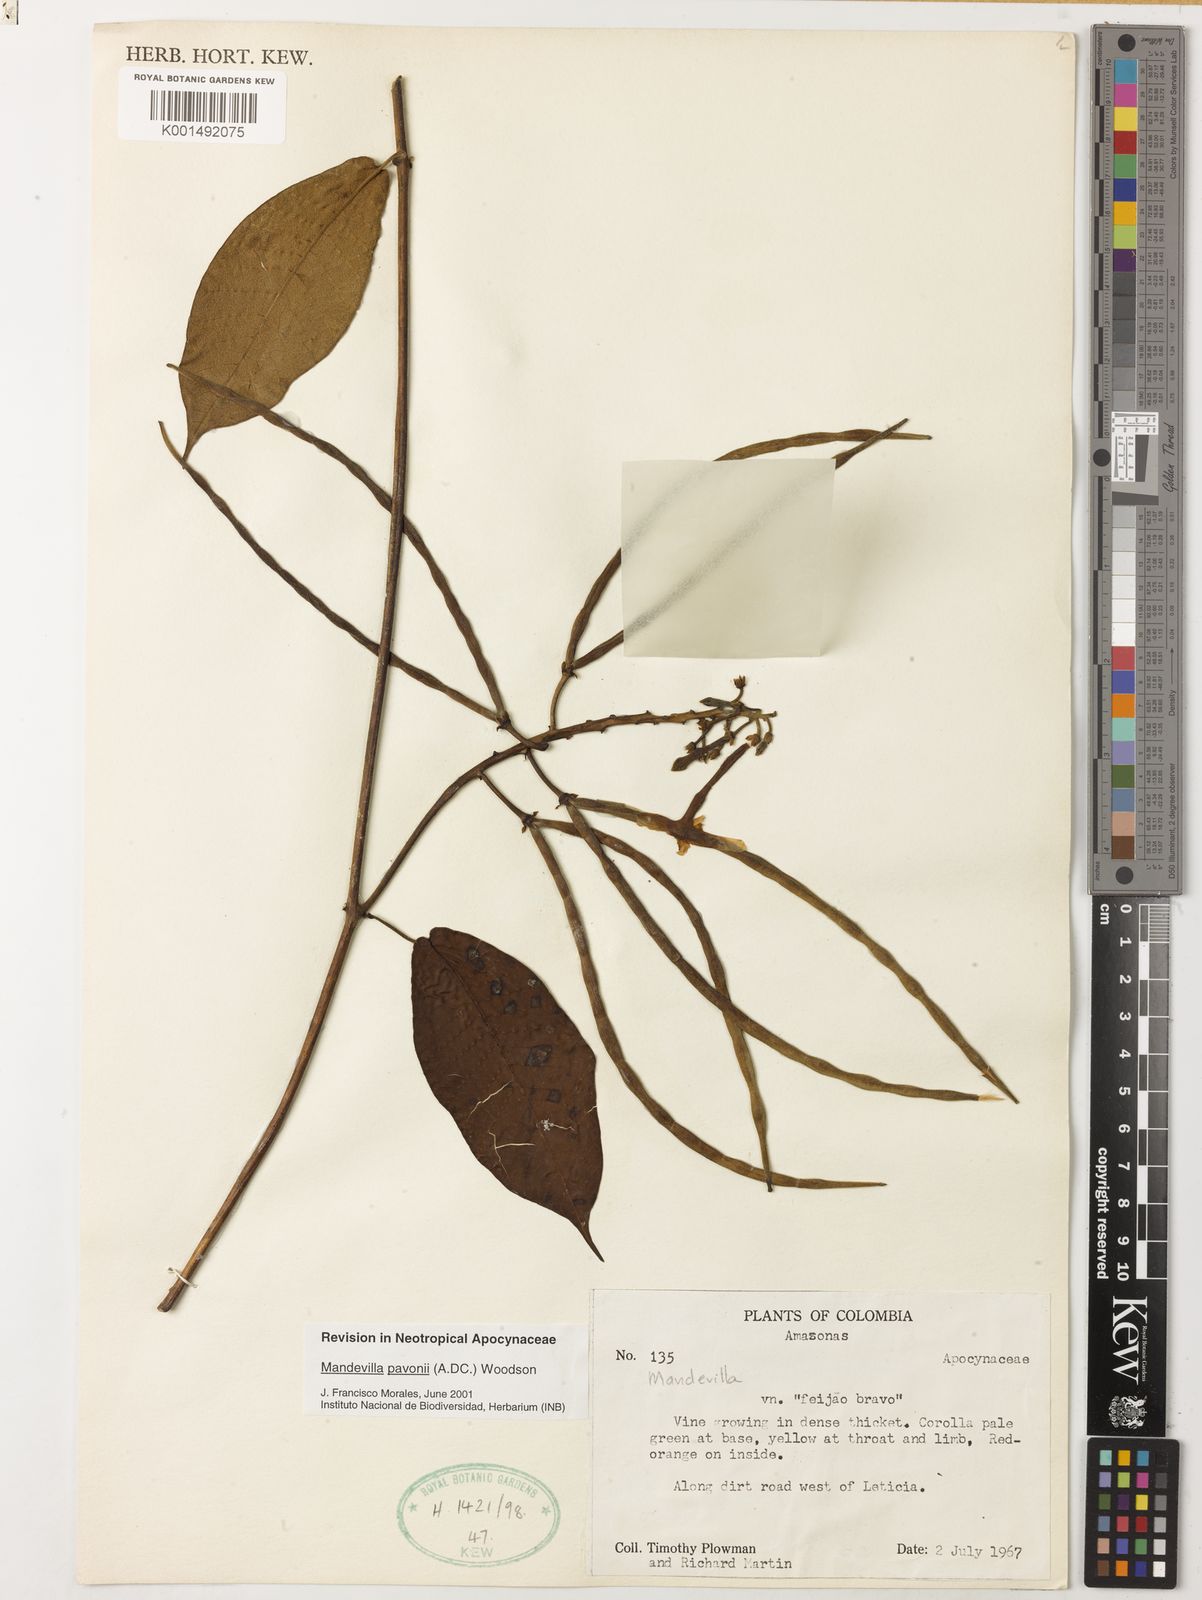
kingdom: Plantae
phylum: Tracheophyta
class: Magnoliopsida
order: Gentianales
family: Apocynaceae
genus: Mandevilla
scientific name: Mandevilla pavonii
